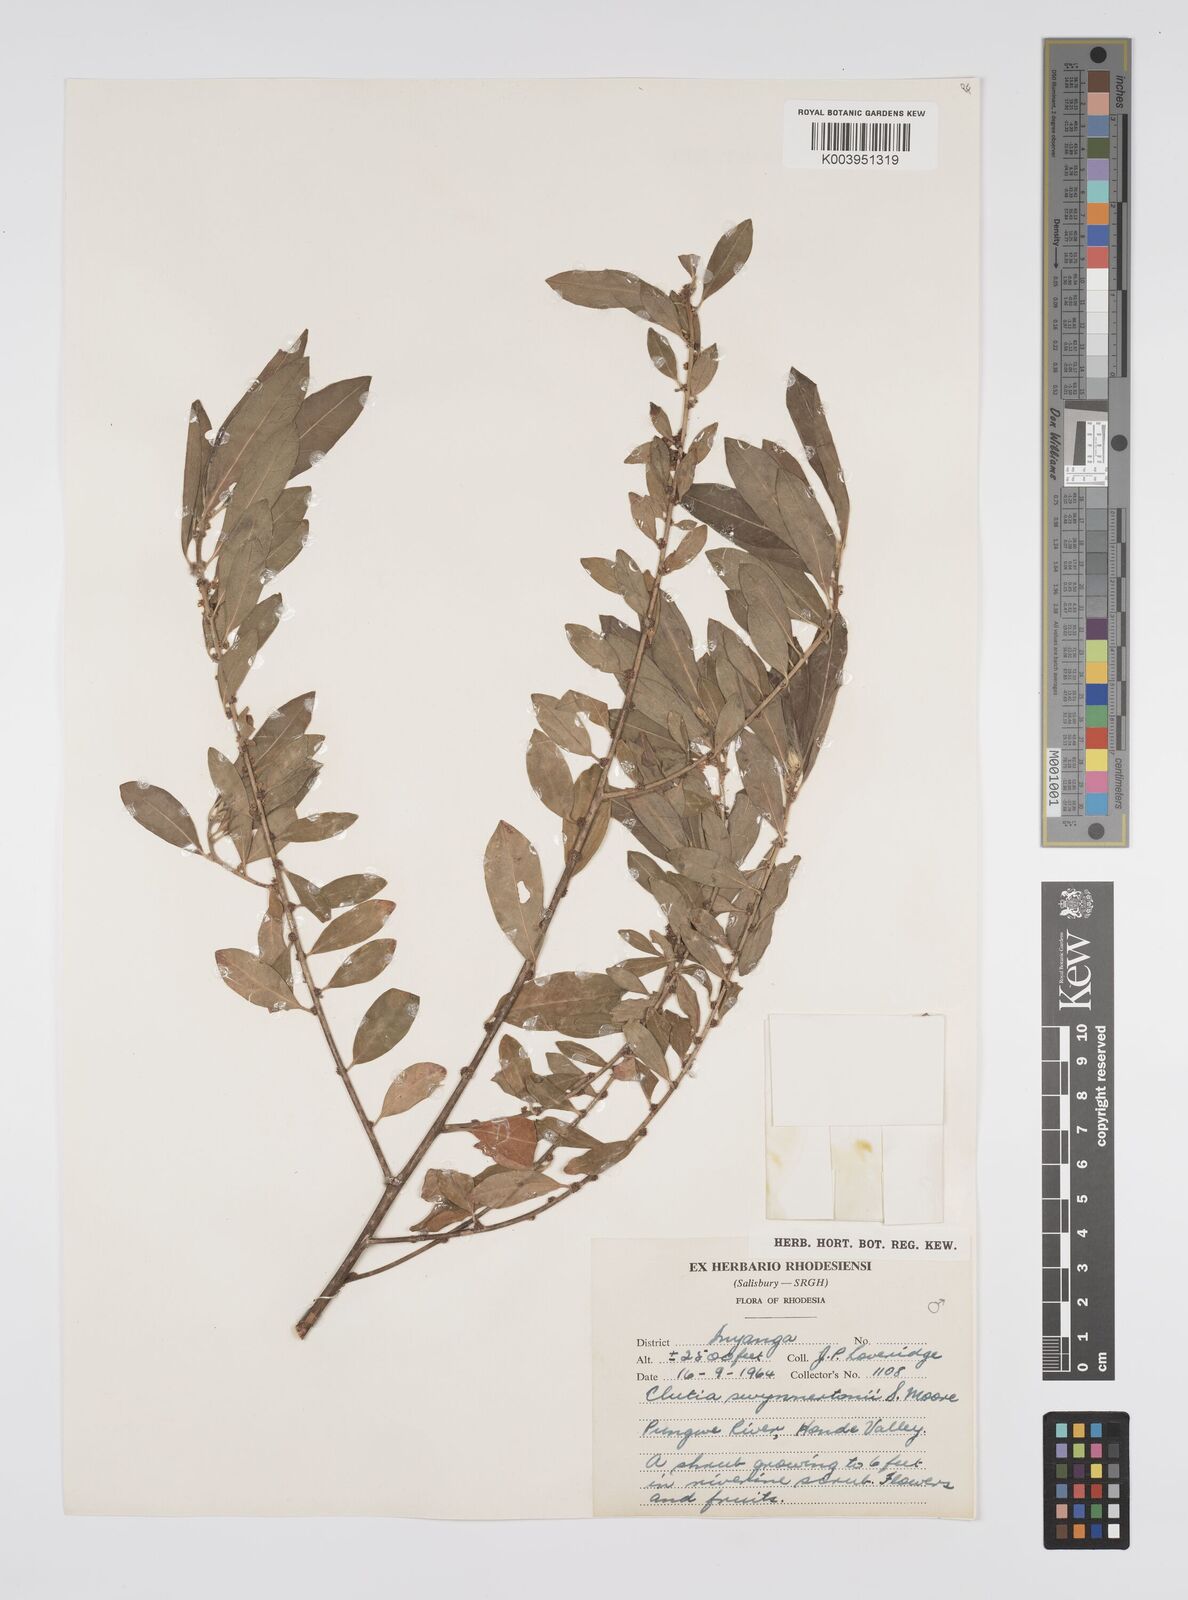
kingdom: Plantae
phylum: Tracheophyta
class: Magnoliopsida
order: Malpighiales
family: Peraceae
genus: Clutia
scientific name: Clutia swynnertonii
